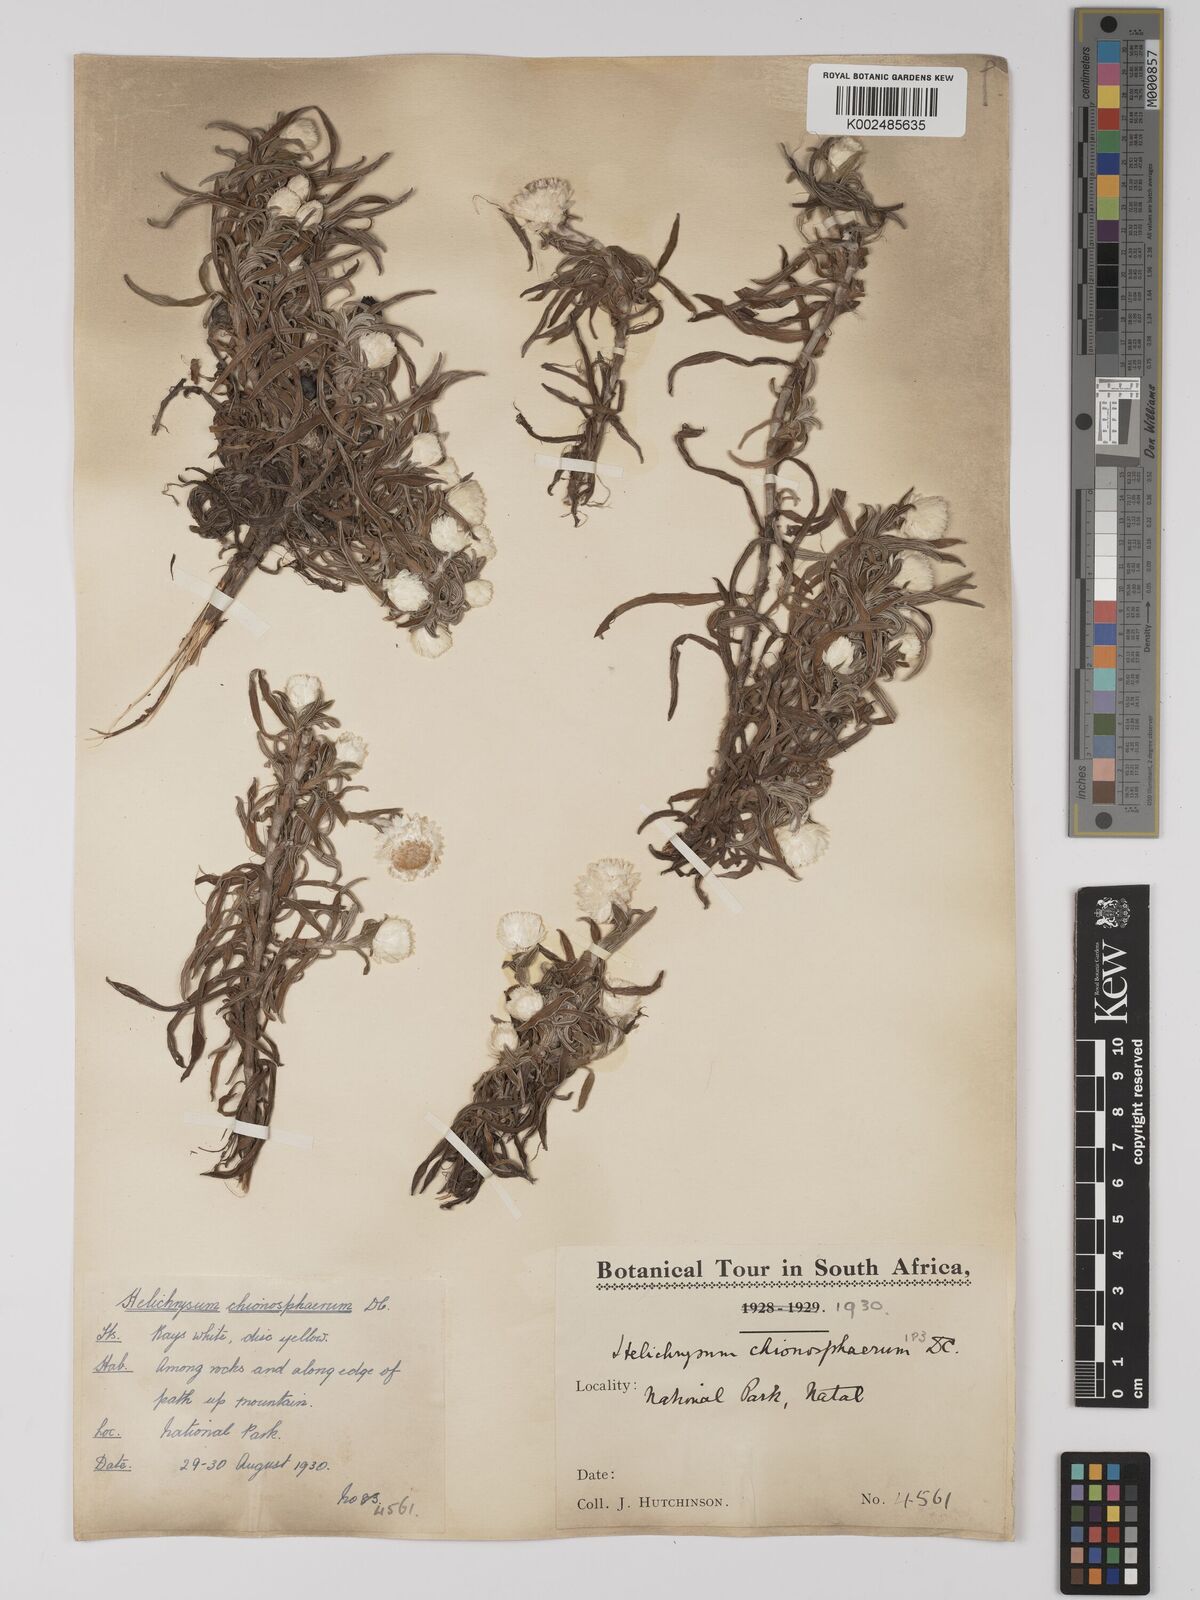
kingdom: Plantae
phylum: Tracheophyta
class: Magnoliopsida
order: Asterales
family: Asteraceae
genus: Helichrysum
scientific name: Helichrysum chionosphaerum
